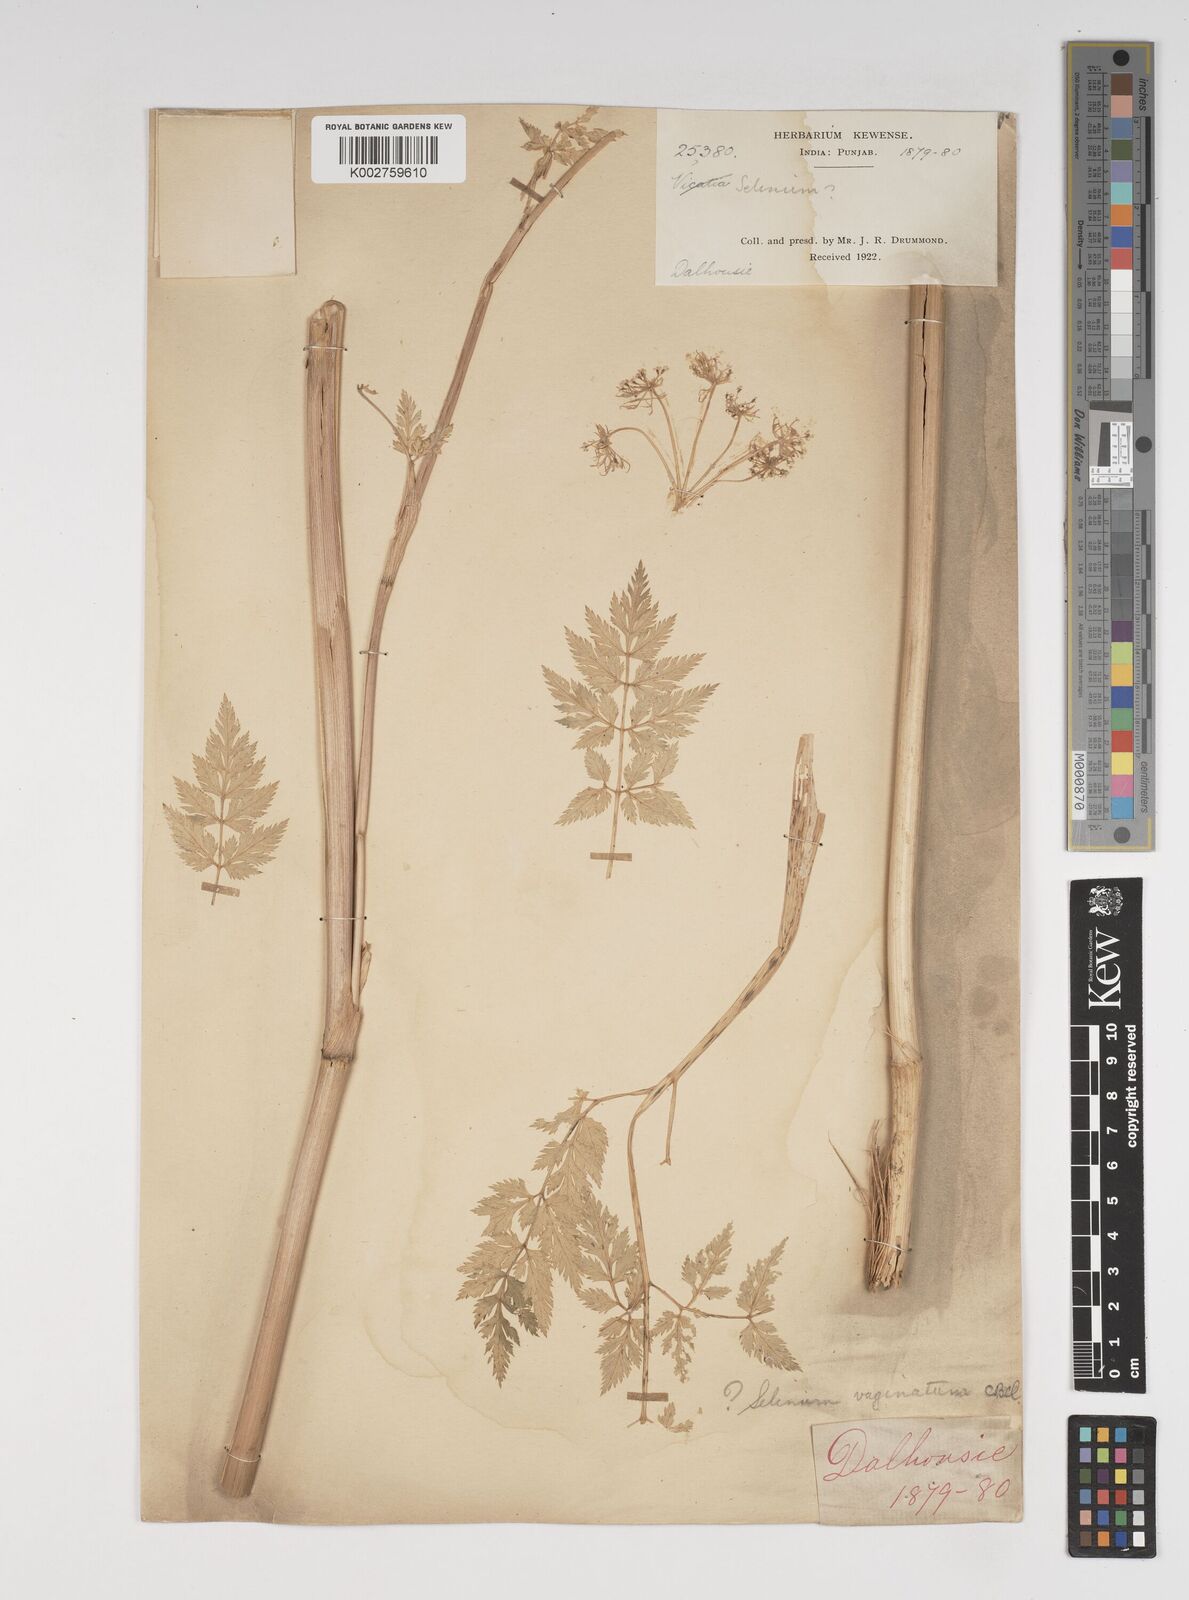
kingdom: Plantae
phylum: Tracheophyta
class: Magnoliopsida
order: Apiales
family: Apiaceae
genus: Selinum
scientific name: Selinum vaginatum
